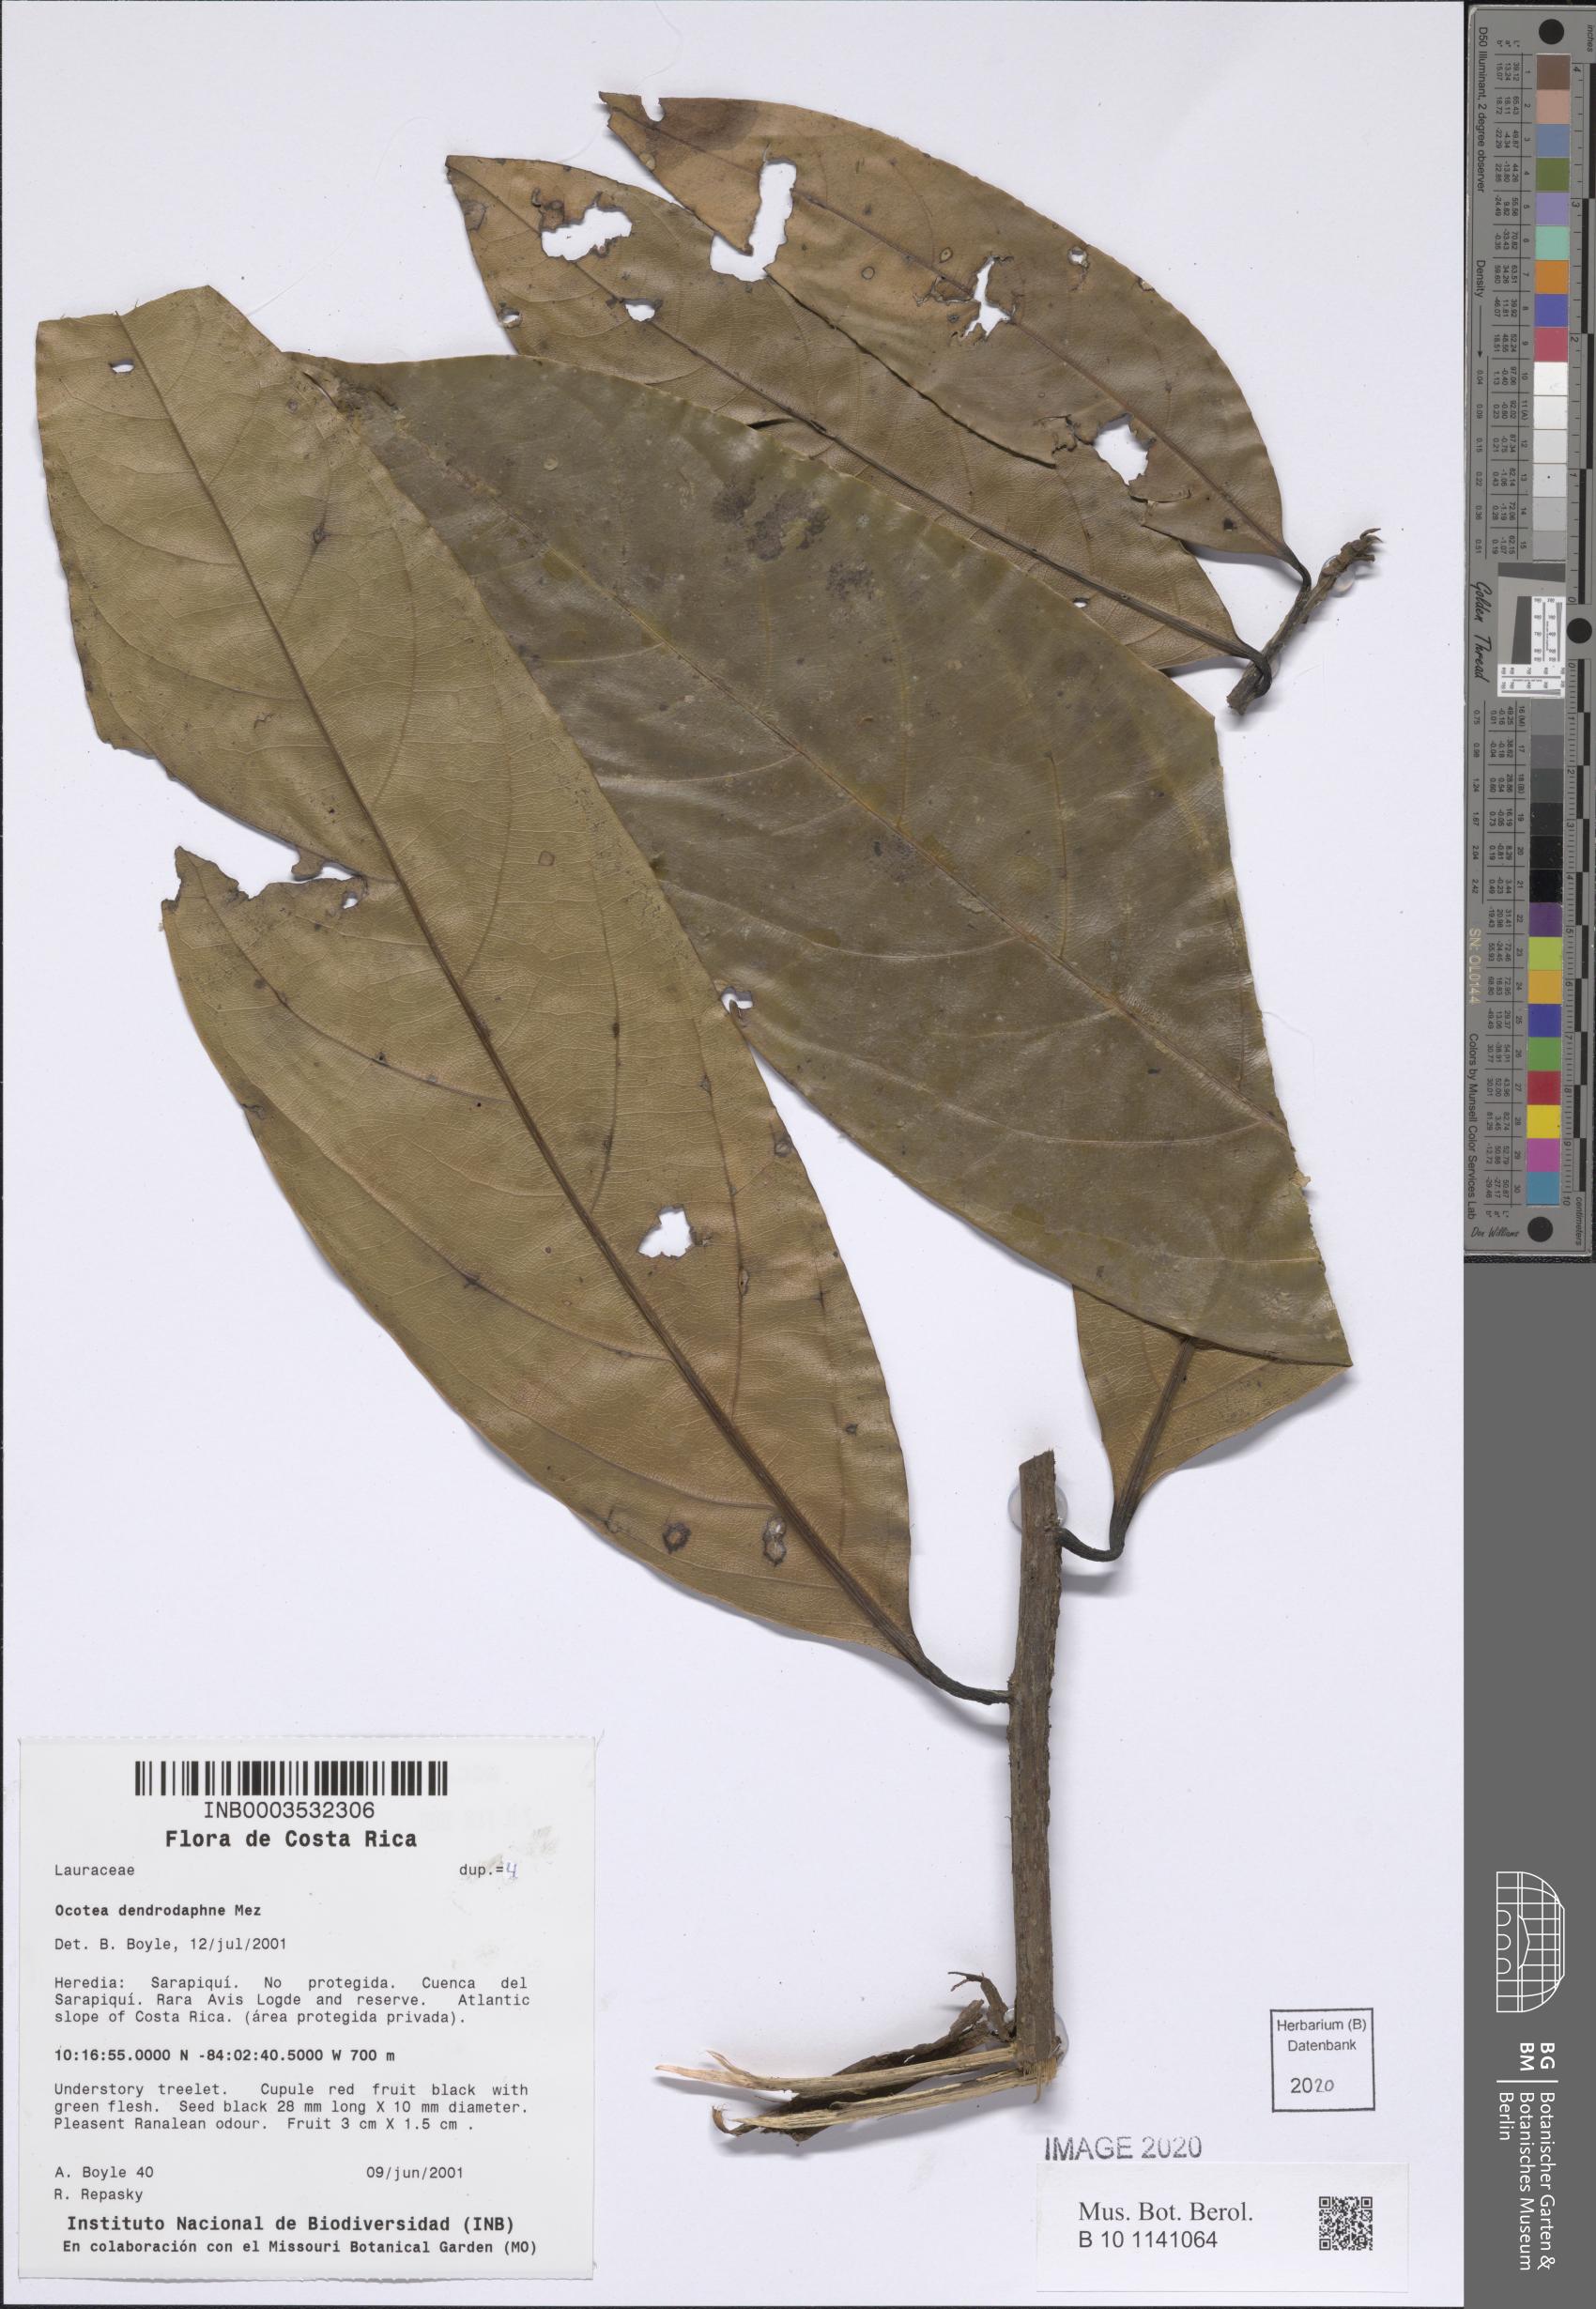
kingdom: Plantae
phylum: Tracheophyta
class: Magnoliopsida
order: Laurales
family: Lauraceae
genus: Mespilodaphne
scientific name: Mespilodaphne macrophylla
